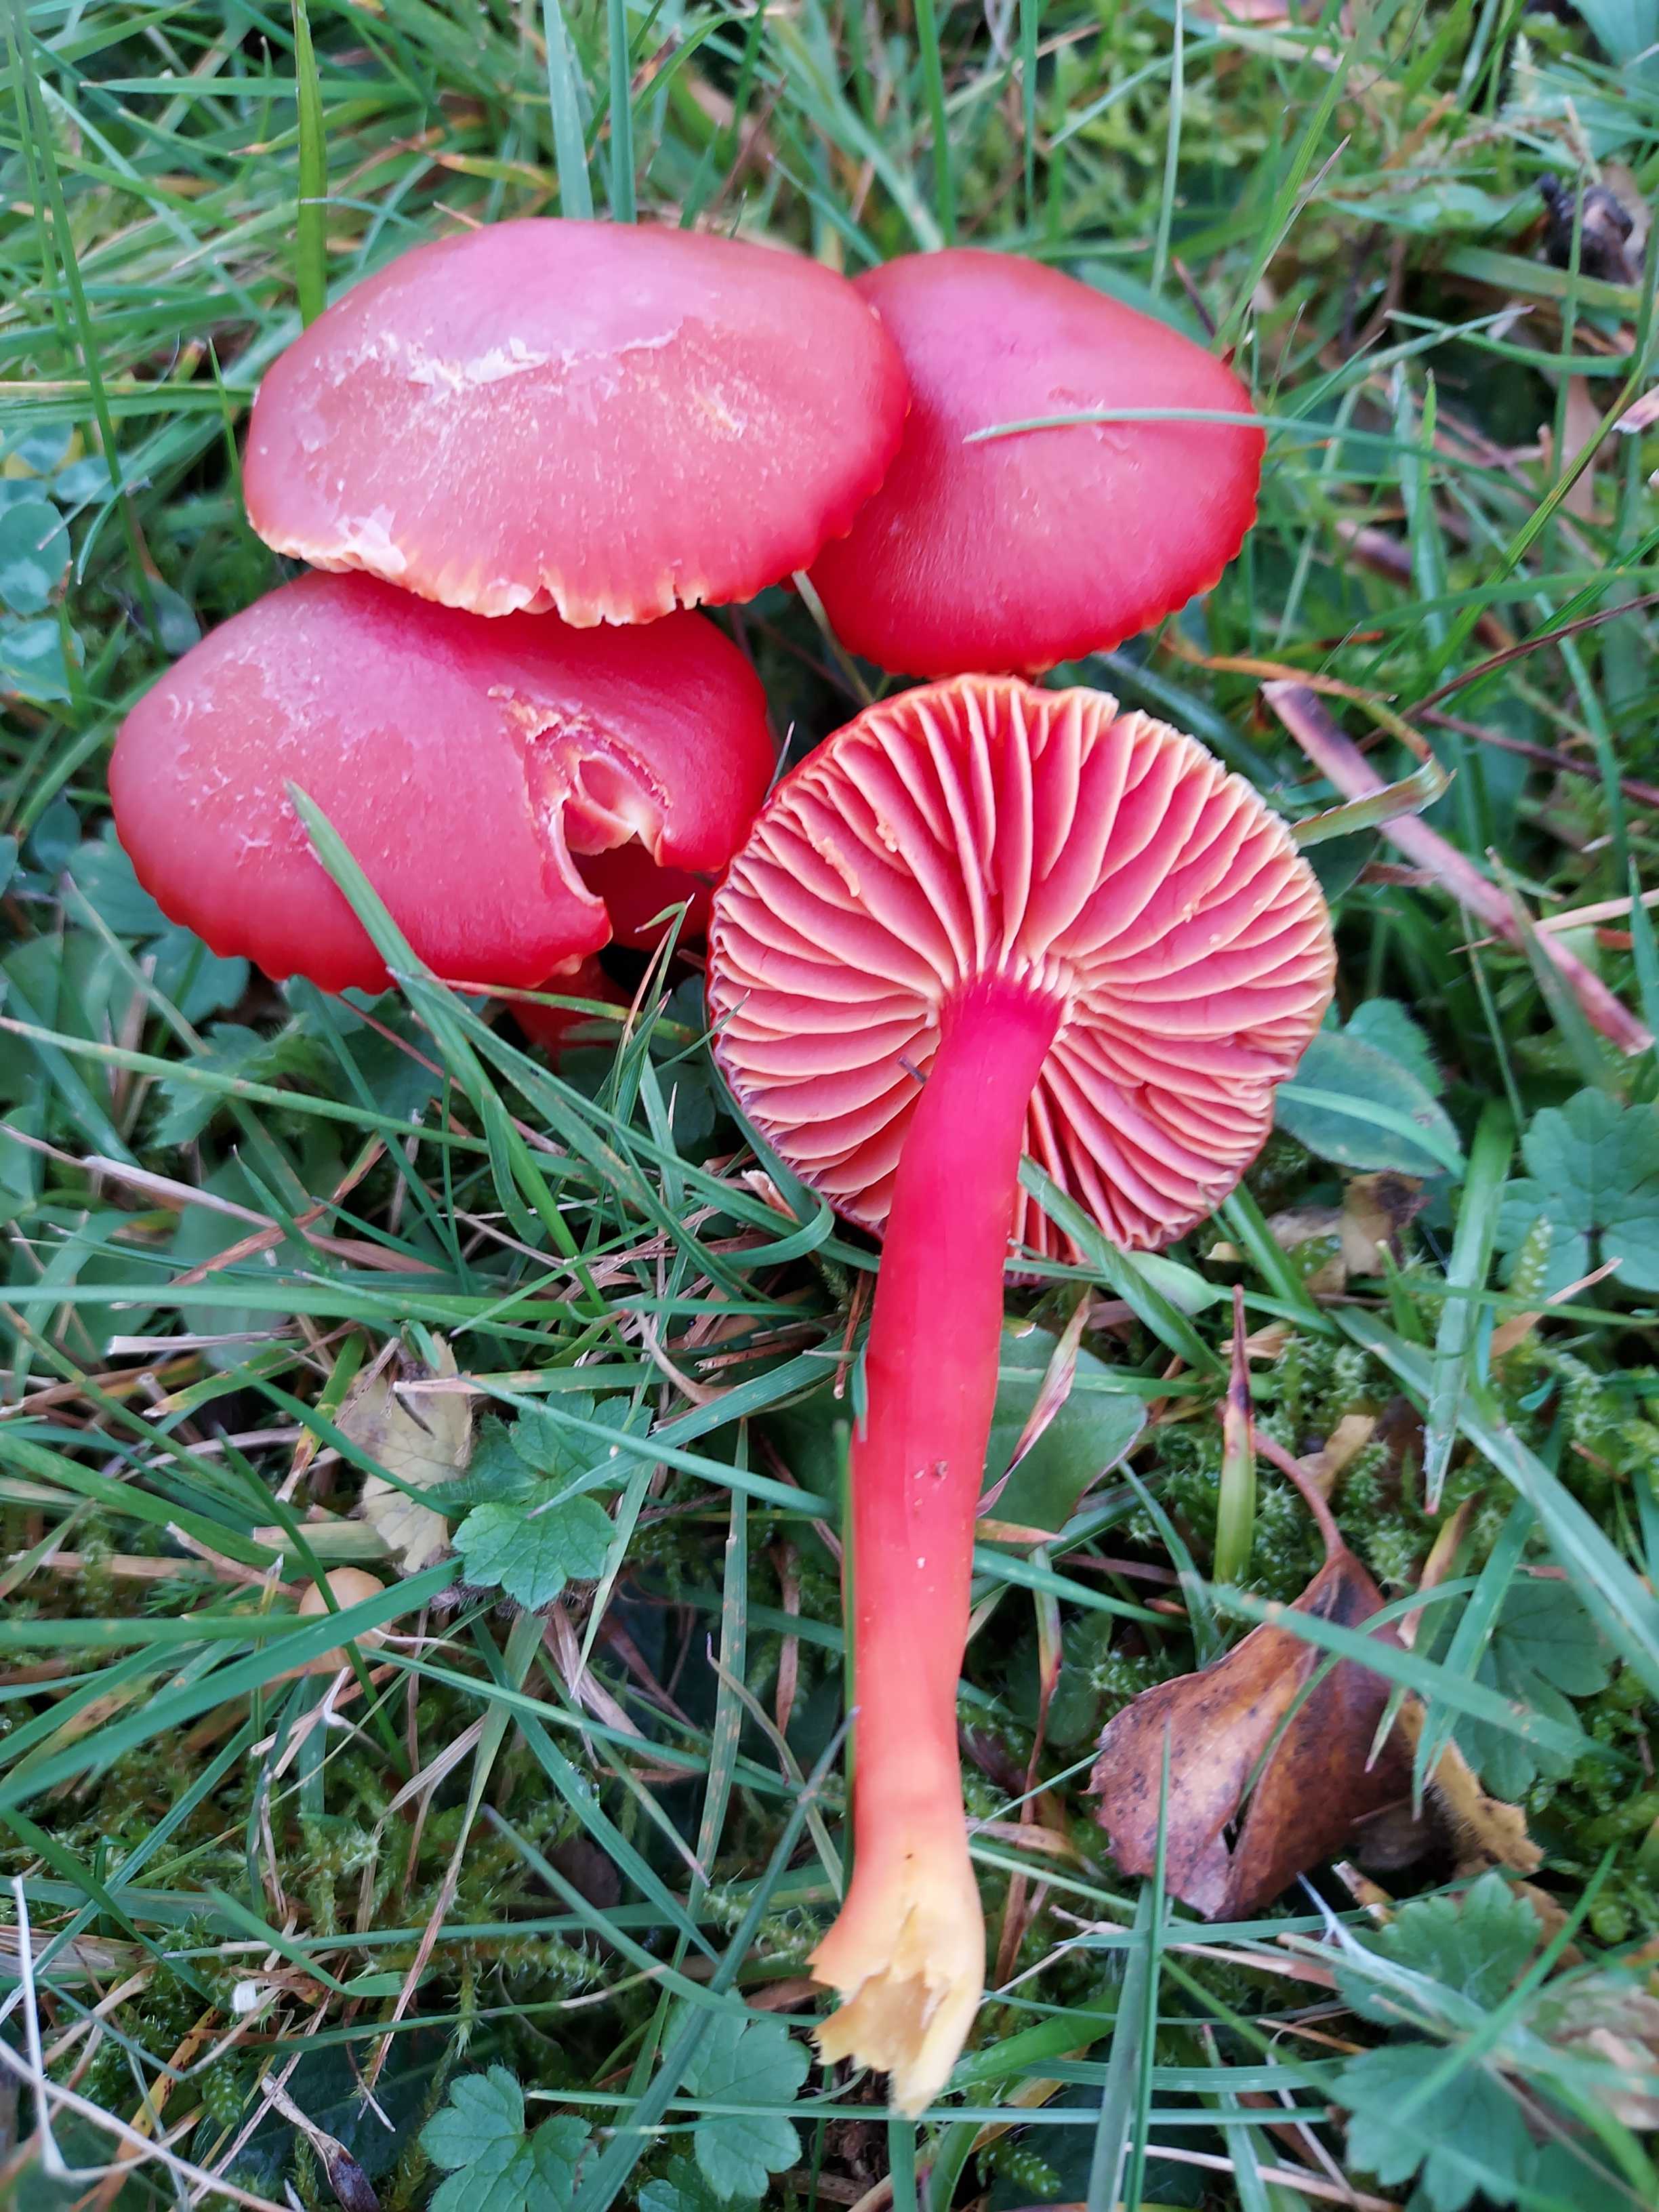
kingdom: Fungi
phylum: Basidiomycota
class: Agaricomycetes
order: Agaricales
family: Hygrophoraceae
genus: Hygrocybe
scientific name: Hygrocybe coccinea
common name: cinnober-vokshat
